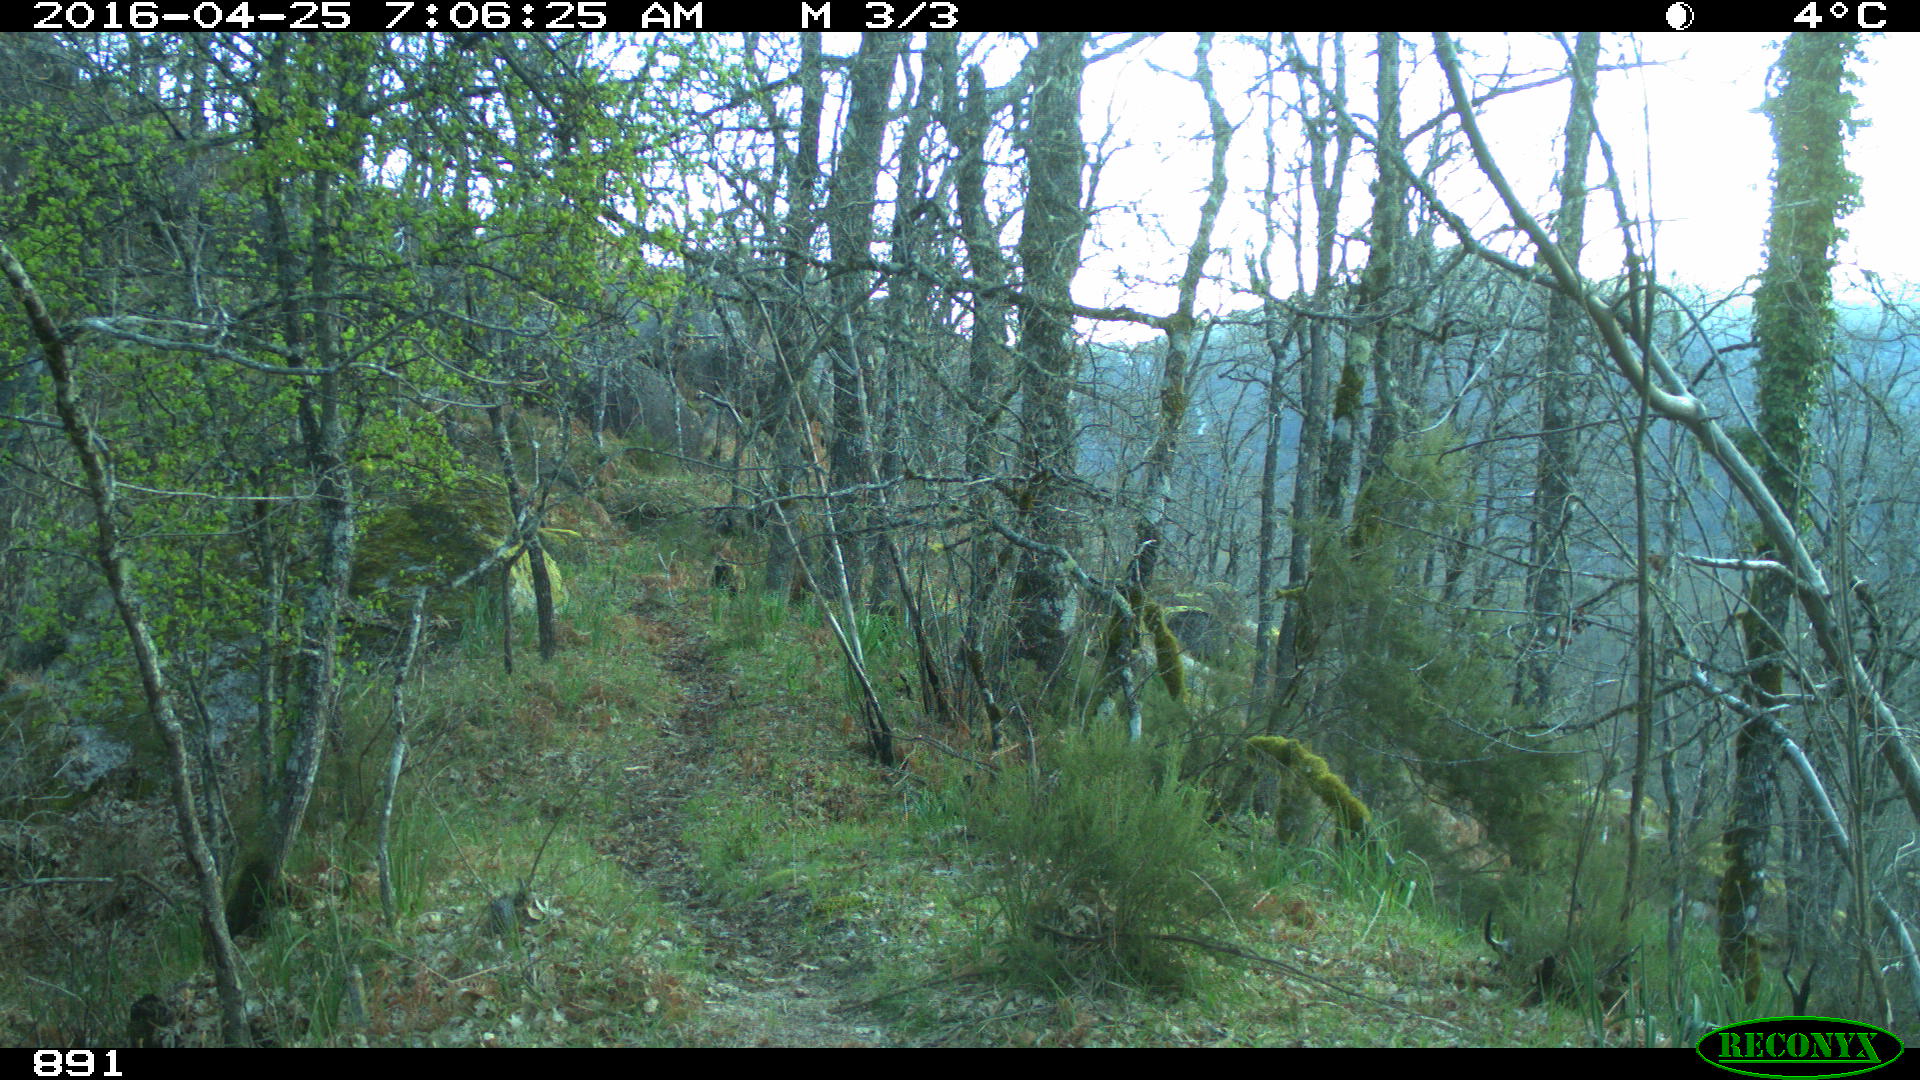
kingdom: Animalia
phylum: Chordata
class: Mammalia
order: Perissodactyla
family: Equidae
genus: Equus
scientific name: Equus caballus
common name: Horse
